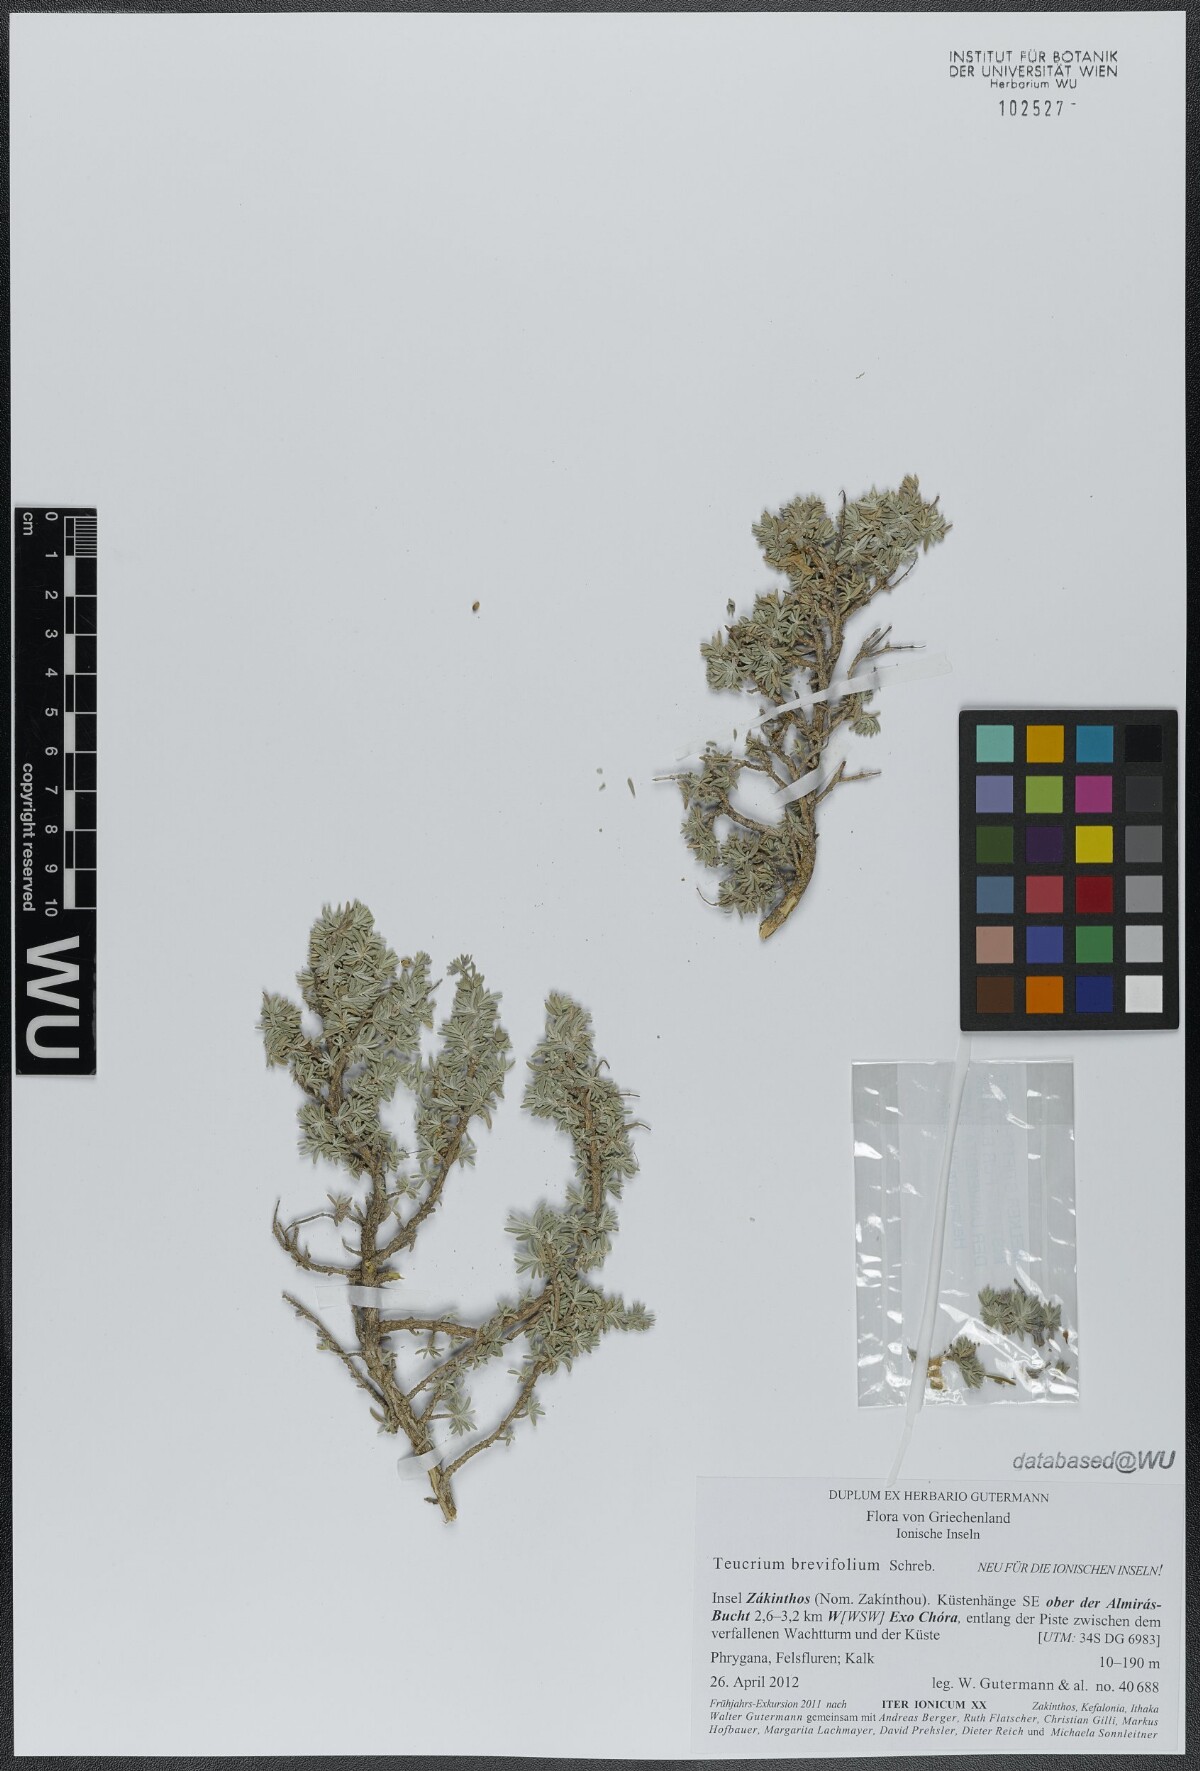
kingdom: Plantae
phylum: Tracheophyta
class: Magnoliopsida
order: Lamiales
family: Lamiaceae
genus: Teucrium
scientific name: Teucrium brevifolium
